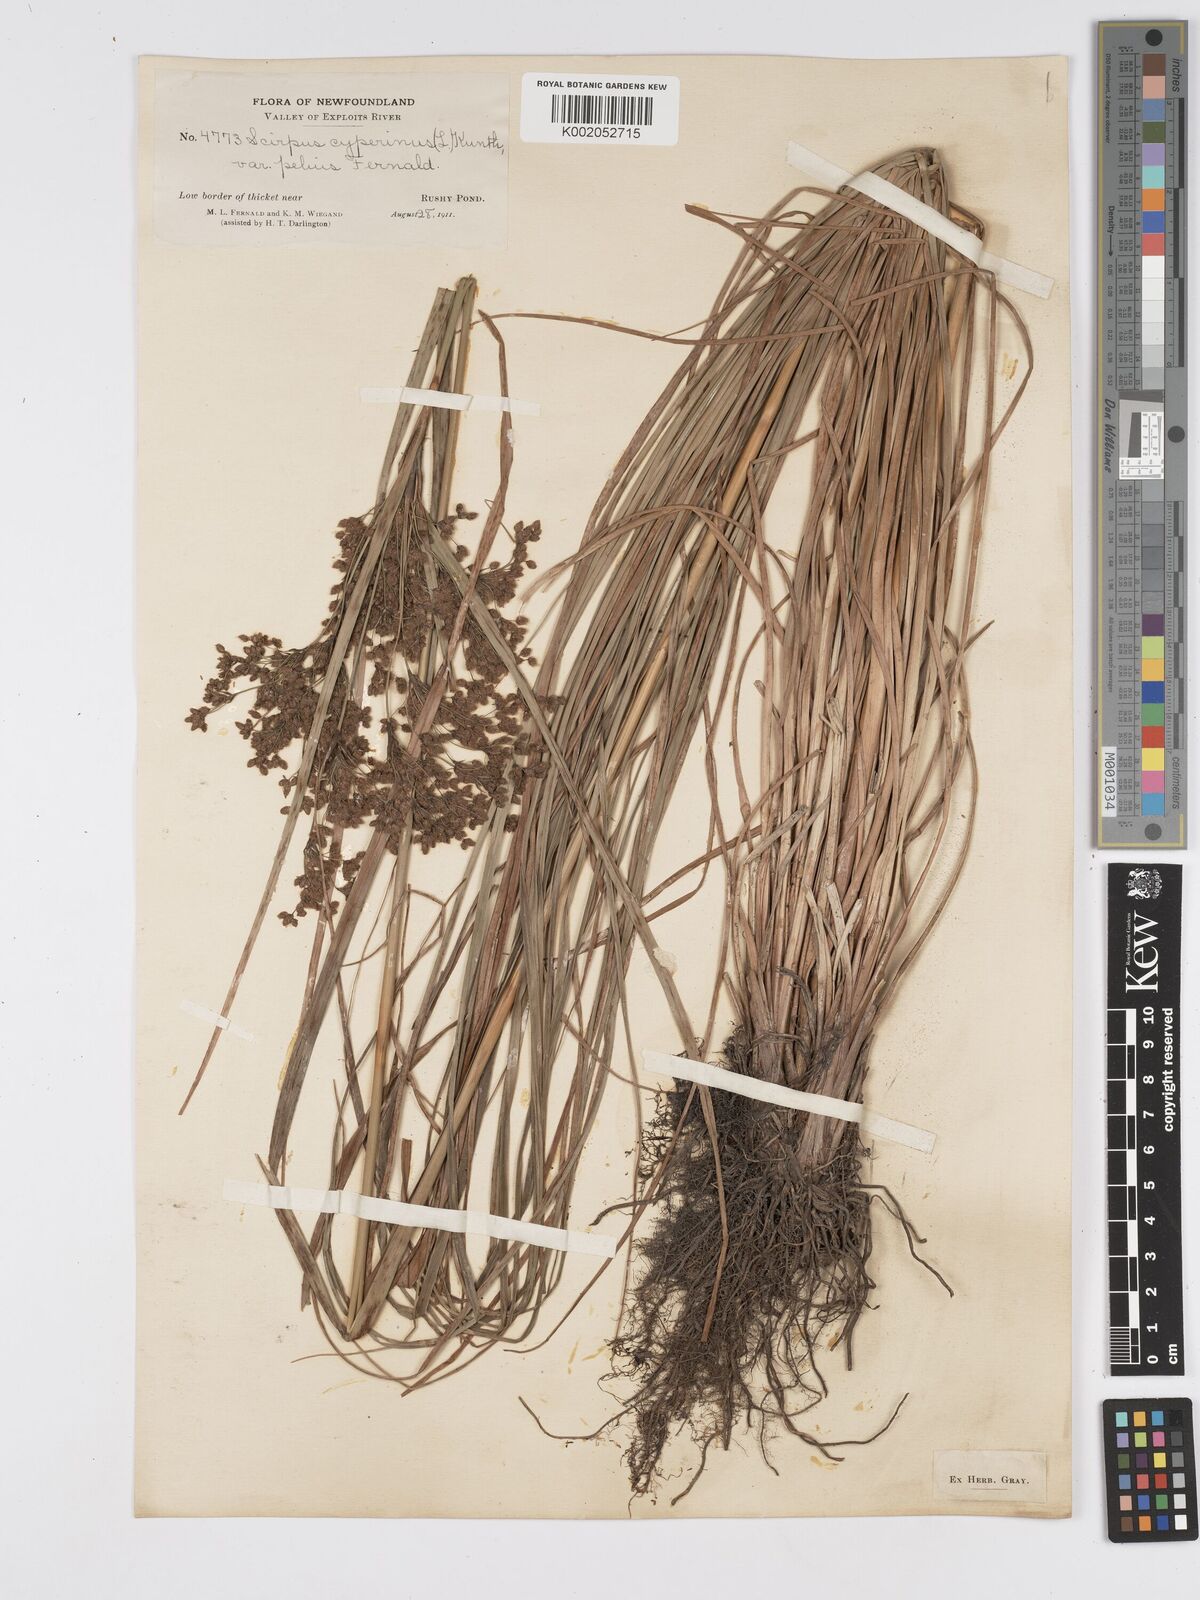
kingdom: Plantae
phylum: Tracheophyta
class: Liliopsida
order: Poales
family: Cyperaceae
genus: Scirpus
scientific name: Scirpus cyperinus
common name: Black-sheathed bulrush
